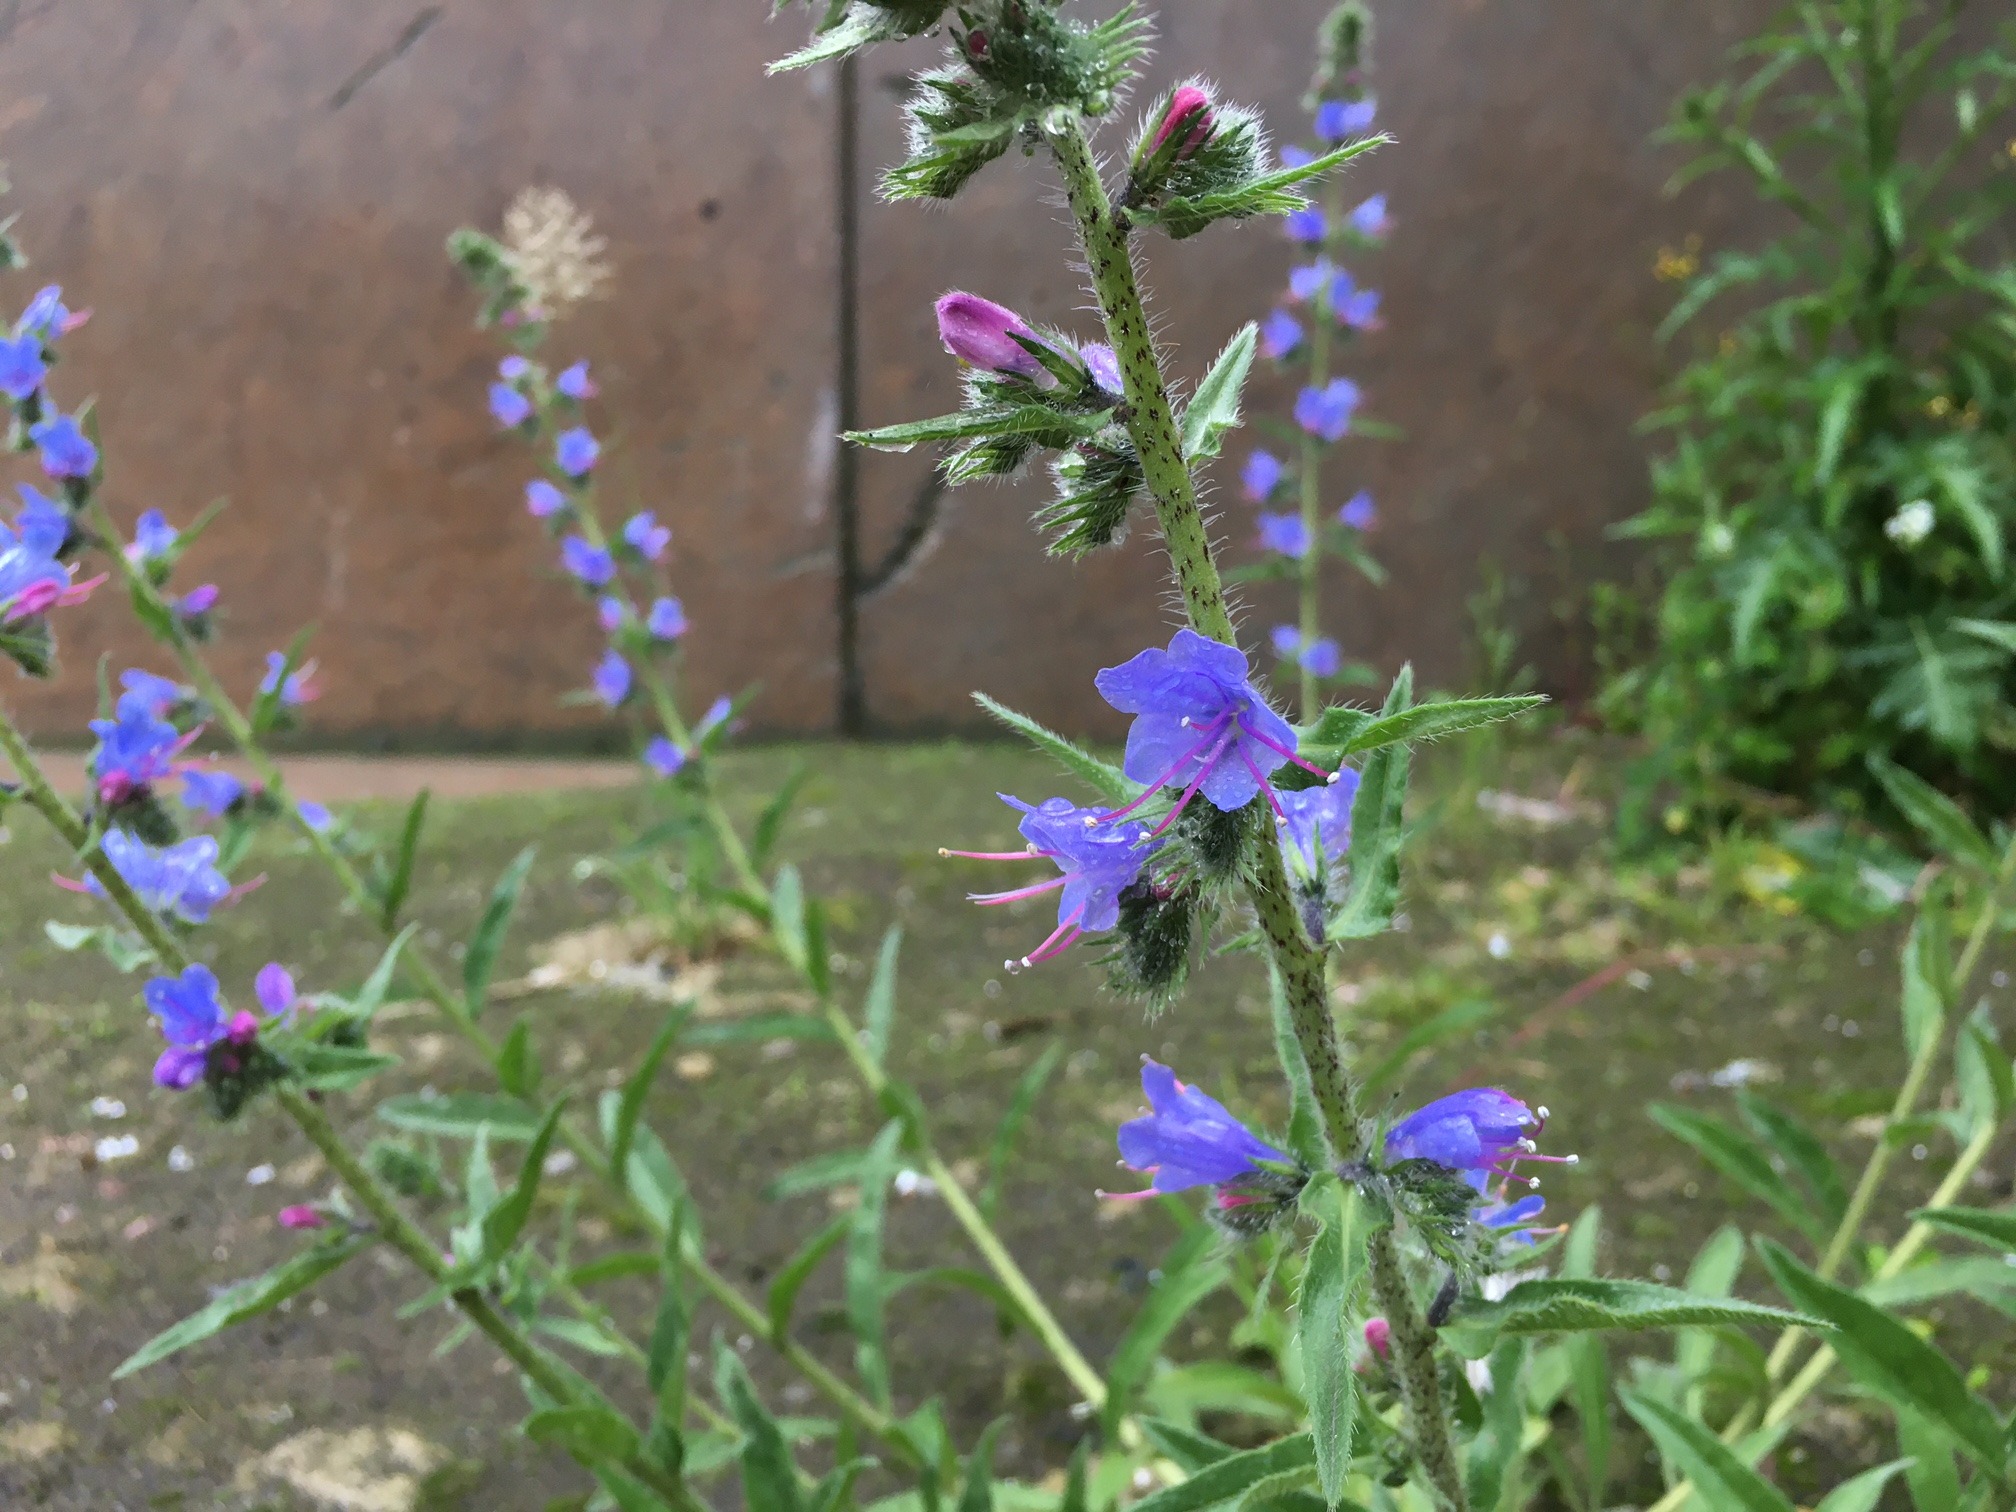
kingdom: Plantae
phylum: Tracheophyta
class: Magnoliopsida
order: Boraginales
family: Boraginaceae
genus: Echium
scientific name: Echium vulgare
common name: Slangehoved
